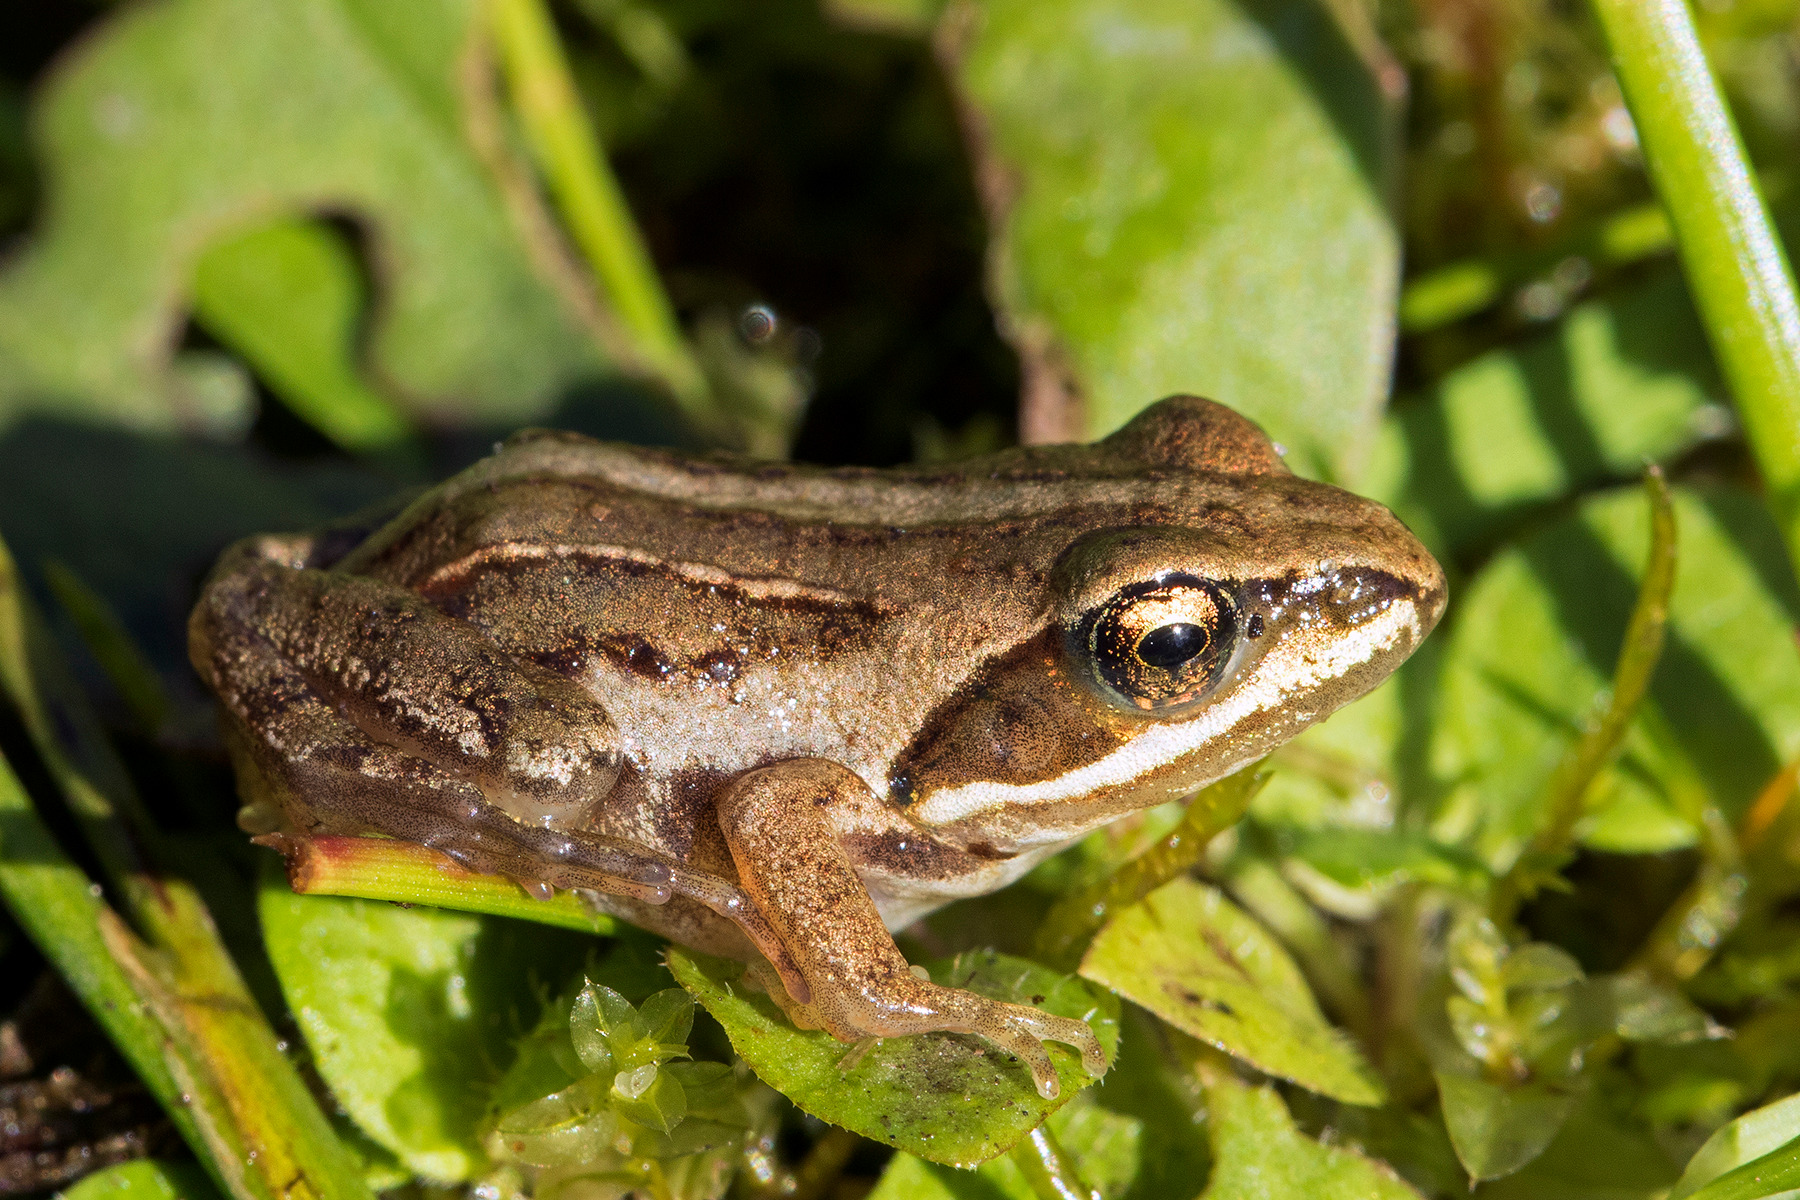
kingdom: Animalia
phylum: Chordata
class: Amphibia
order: Anura
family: Ranidae
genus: Rana
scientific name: Rana arvalis
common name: Spidssnudet frø
